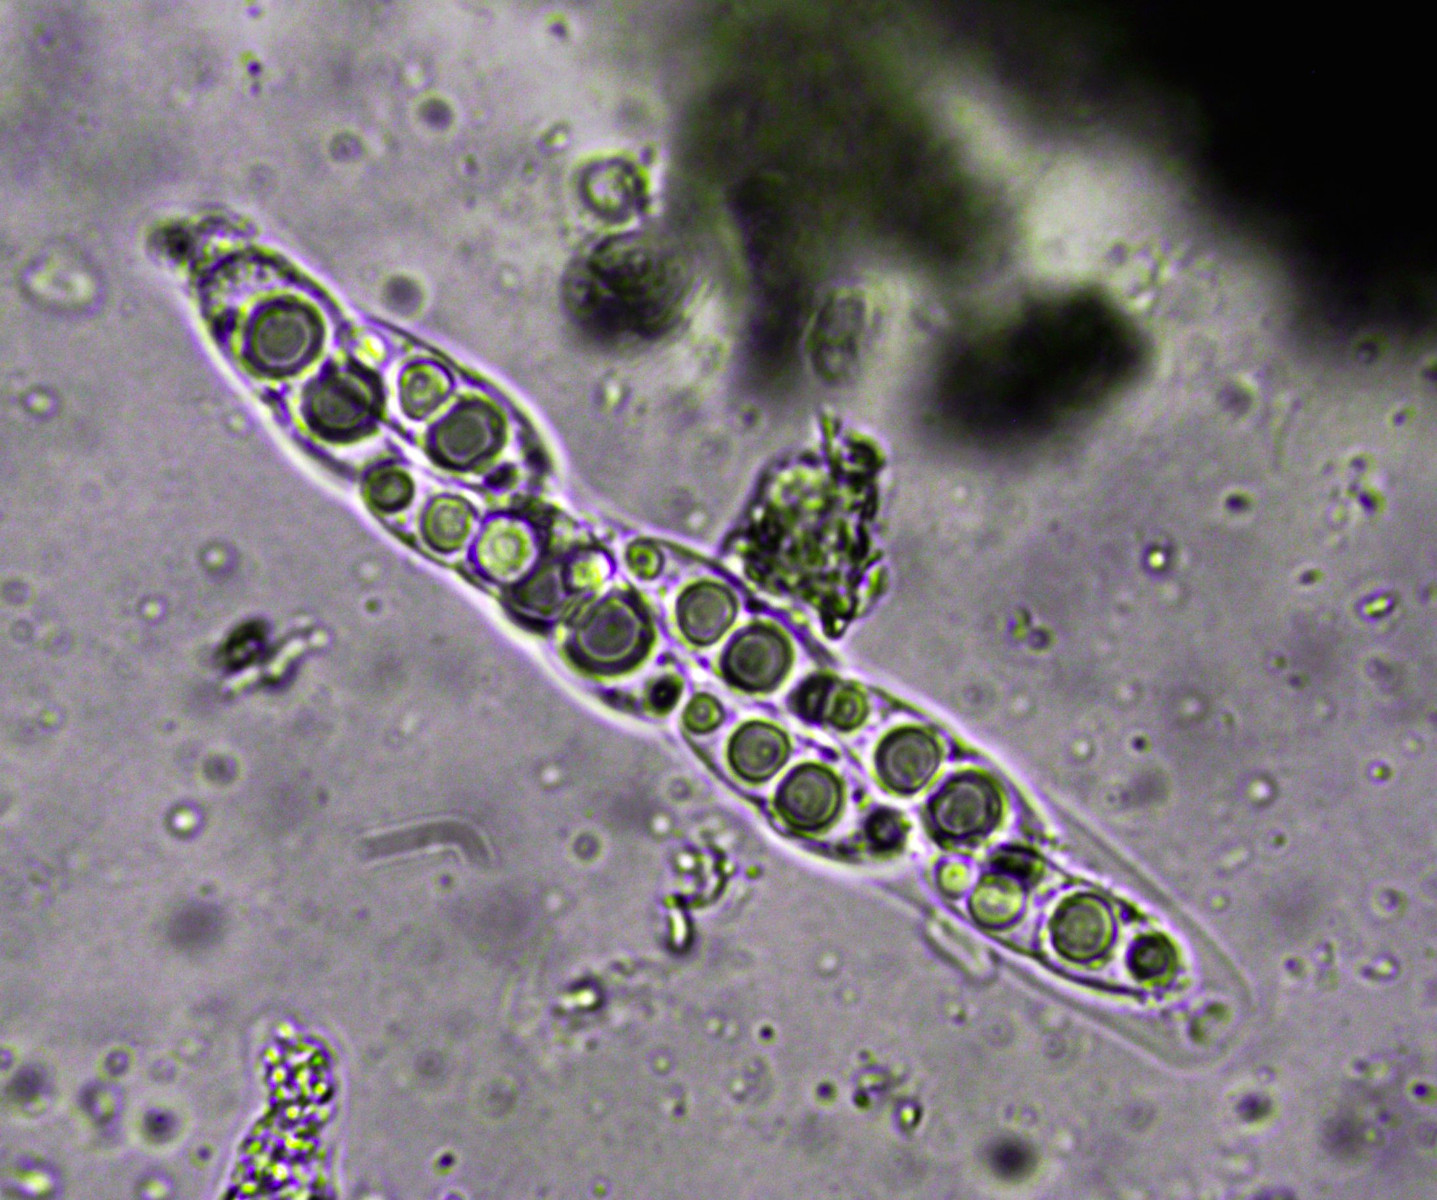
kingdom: Fungi
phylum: Ascomycota
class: Sordariomycetes
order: Diaporthales
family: Diaporthaceae
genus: Diaporthe
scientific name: Diaporthe detrusa
